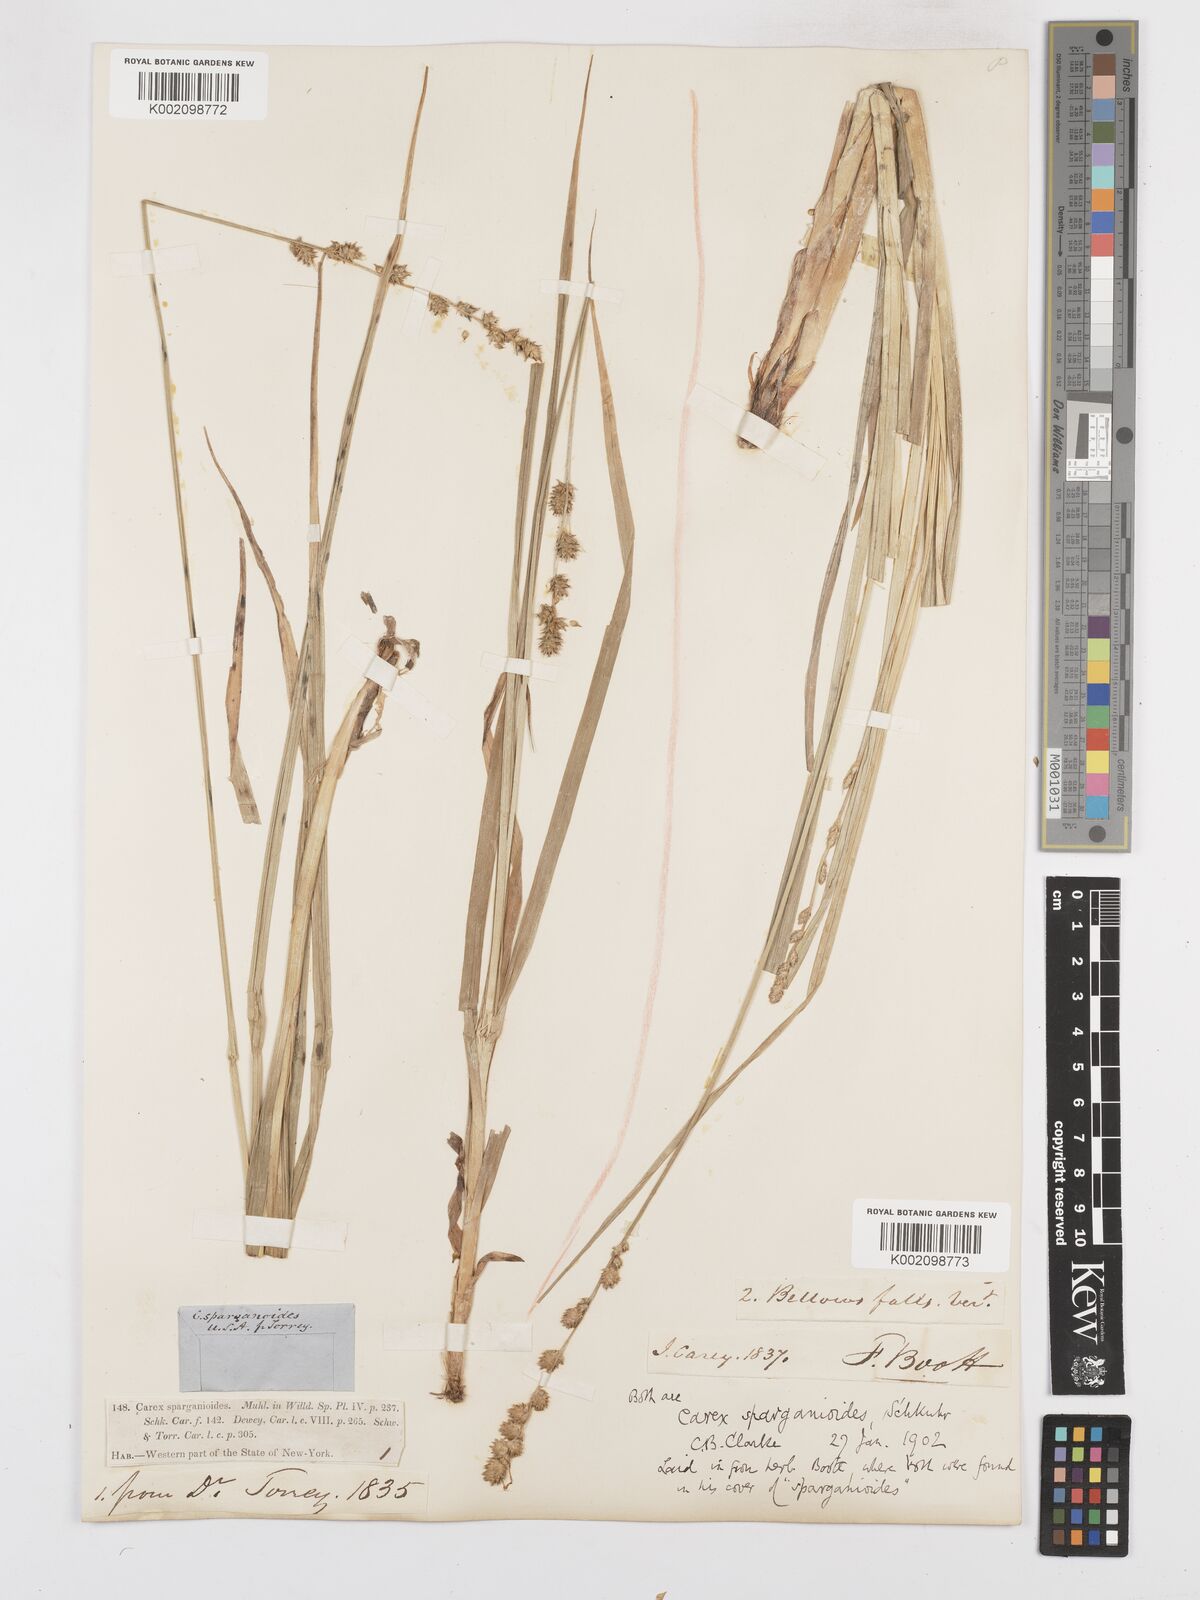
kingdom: Plantae
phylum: Tracheophyta
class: Liliopsida
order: Poales
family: Cyperaceae
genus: Carex
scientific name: Carex sparganioides
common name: Burreed sedge
